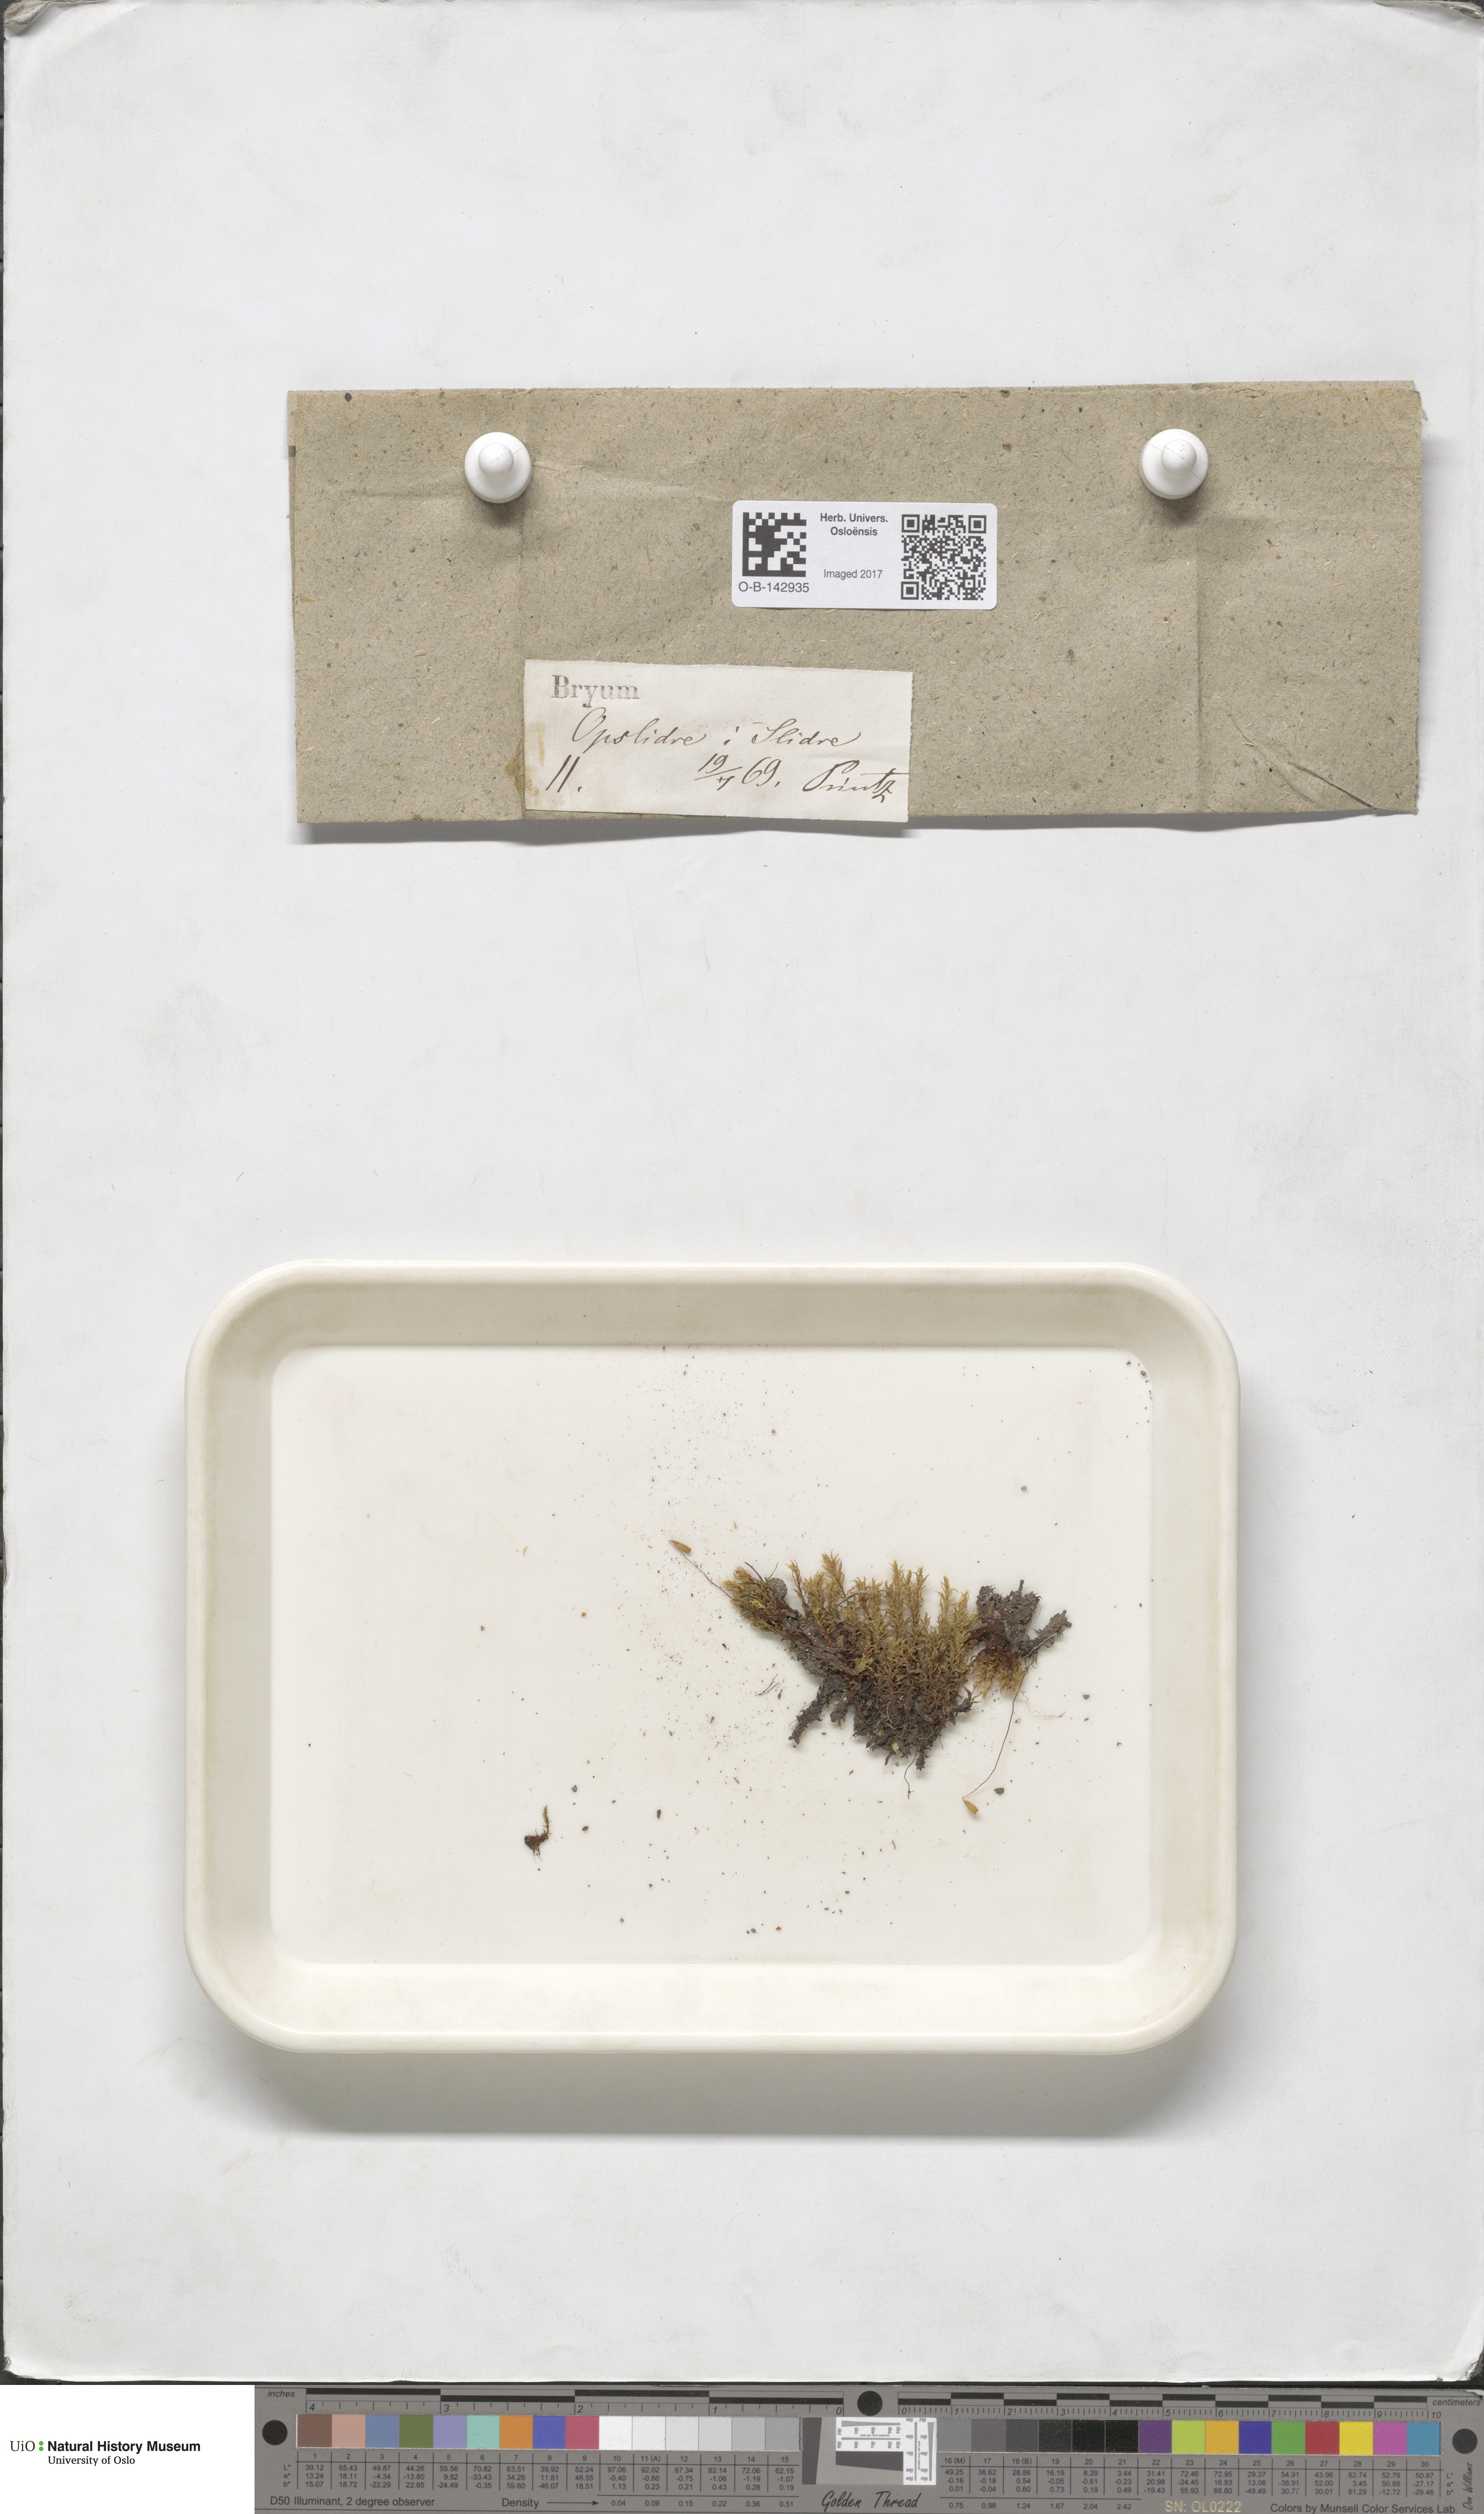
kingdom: Plantae
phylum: Bryophyta
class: Bryopsida
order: Bryales
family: Bryaceae
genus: Bryum
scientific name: Bryum
